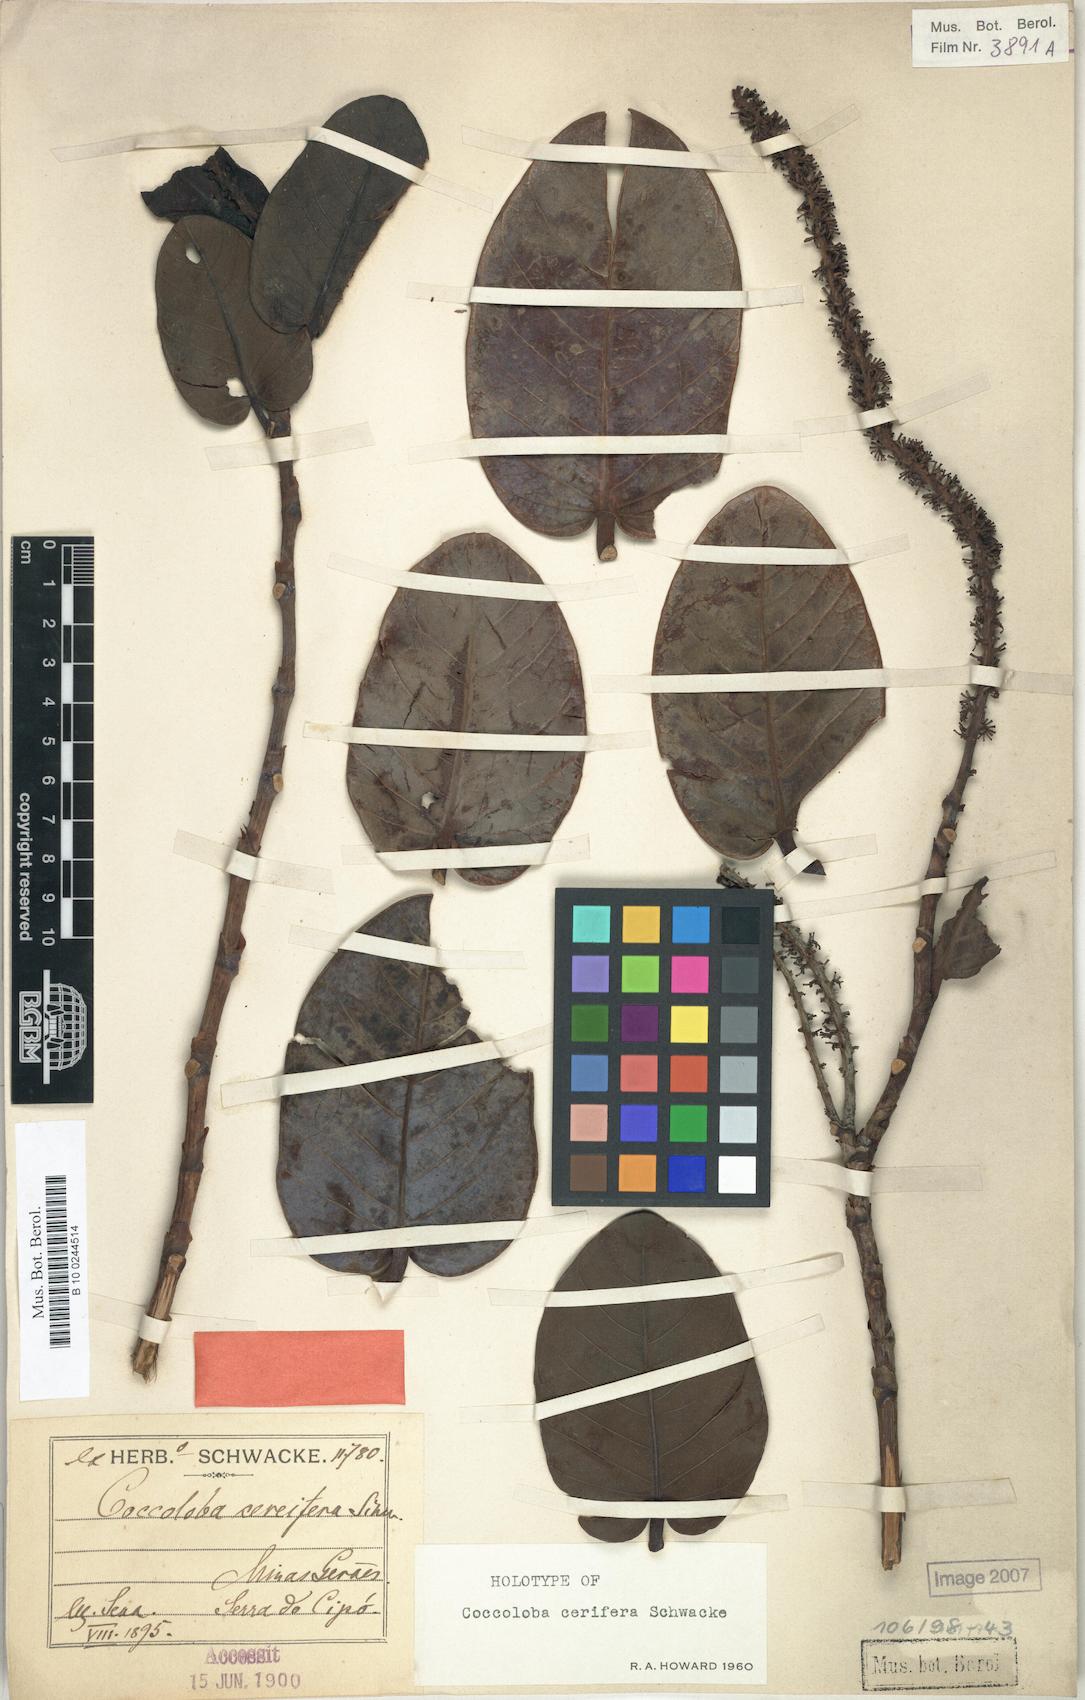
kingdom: Plantae
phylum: Tracheophyta
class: Magnoliopsida
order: Caryophyllales
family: Polygonaceae
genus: Coccoloba
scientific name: Coccoloba cerifera
